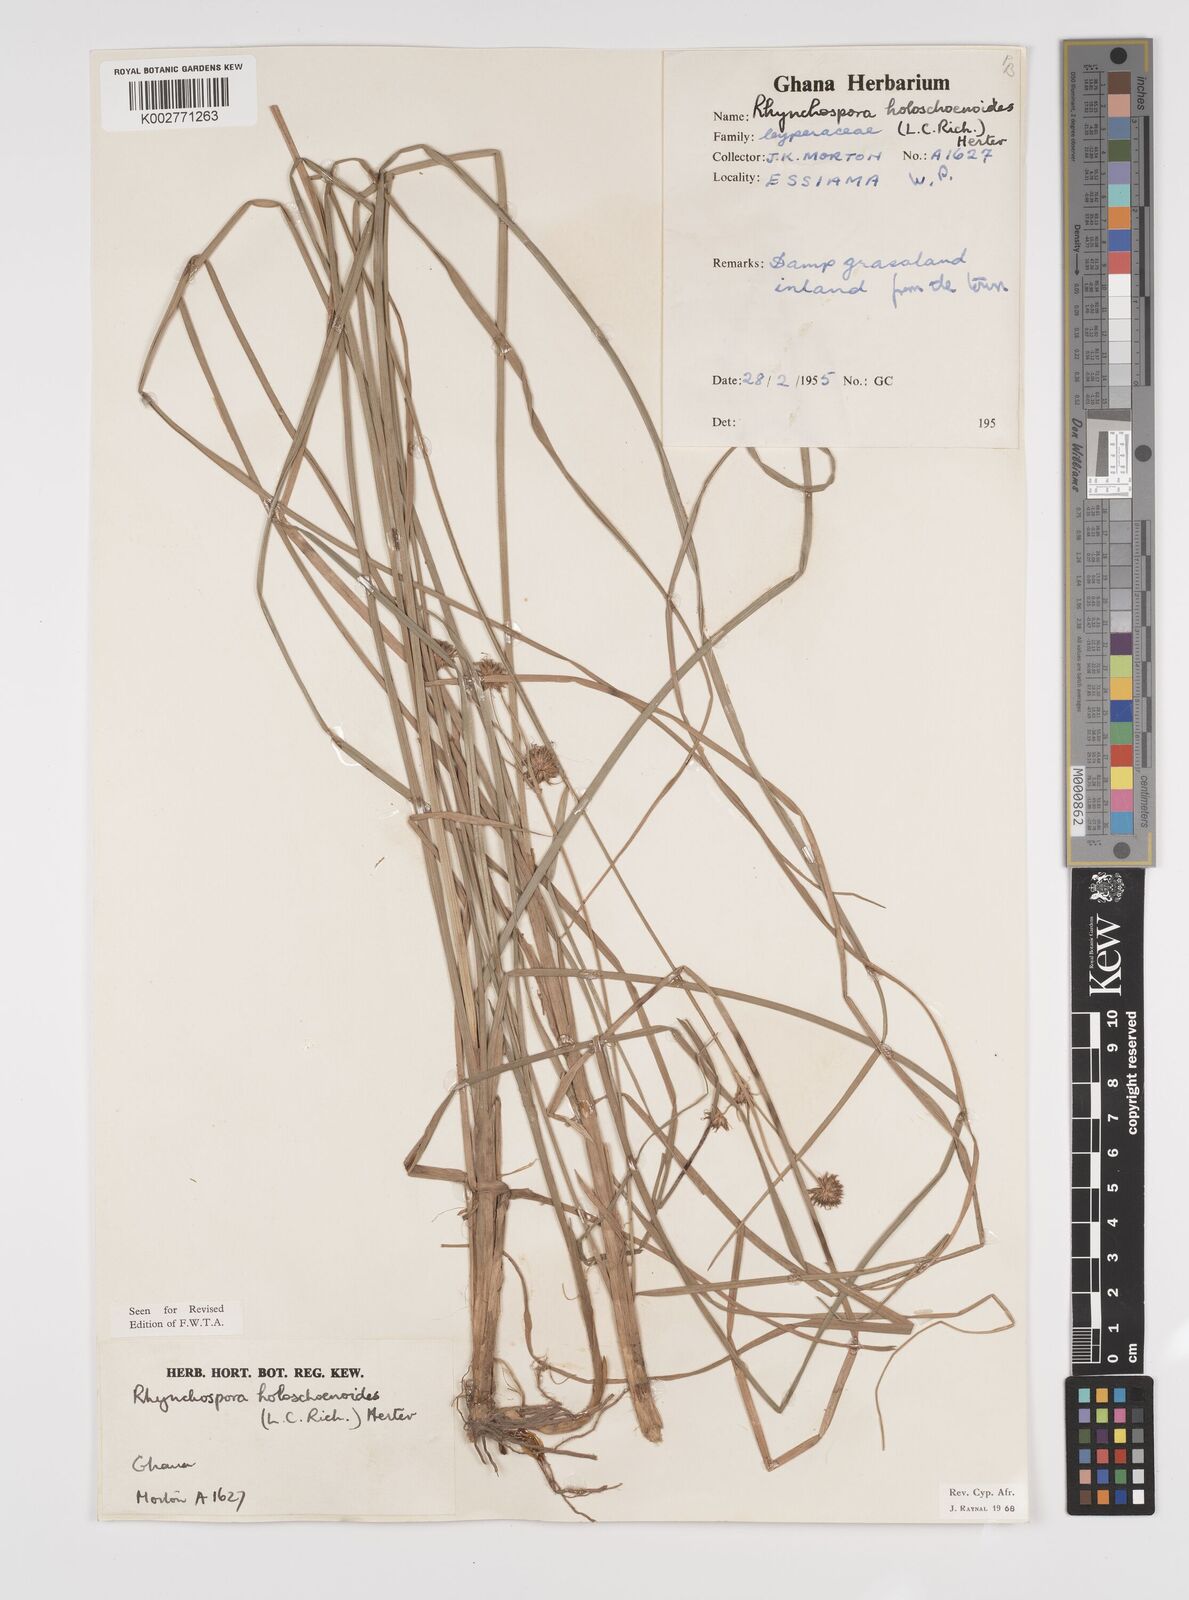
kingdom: Plantae
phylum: Tracheophyta
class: Liliopsida
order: Poales
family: Cyperaceae
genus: Rhynchospora
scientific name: Rhynchospora holoschoenoides
